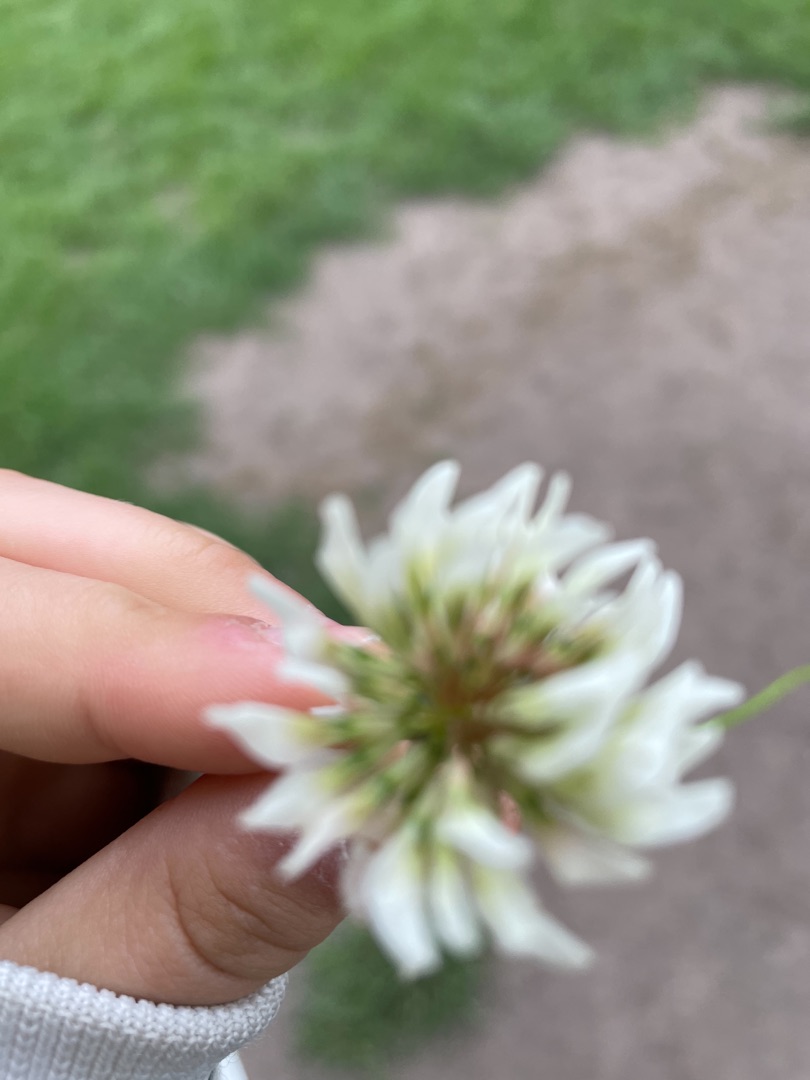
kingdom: Plantae
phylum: Tracheophyta
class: Magnoliopsida
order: Fabales
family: Fabaceae
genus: Trifolium
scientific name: Trifolium repens
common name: Hvid-kløver
